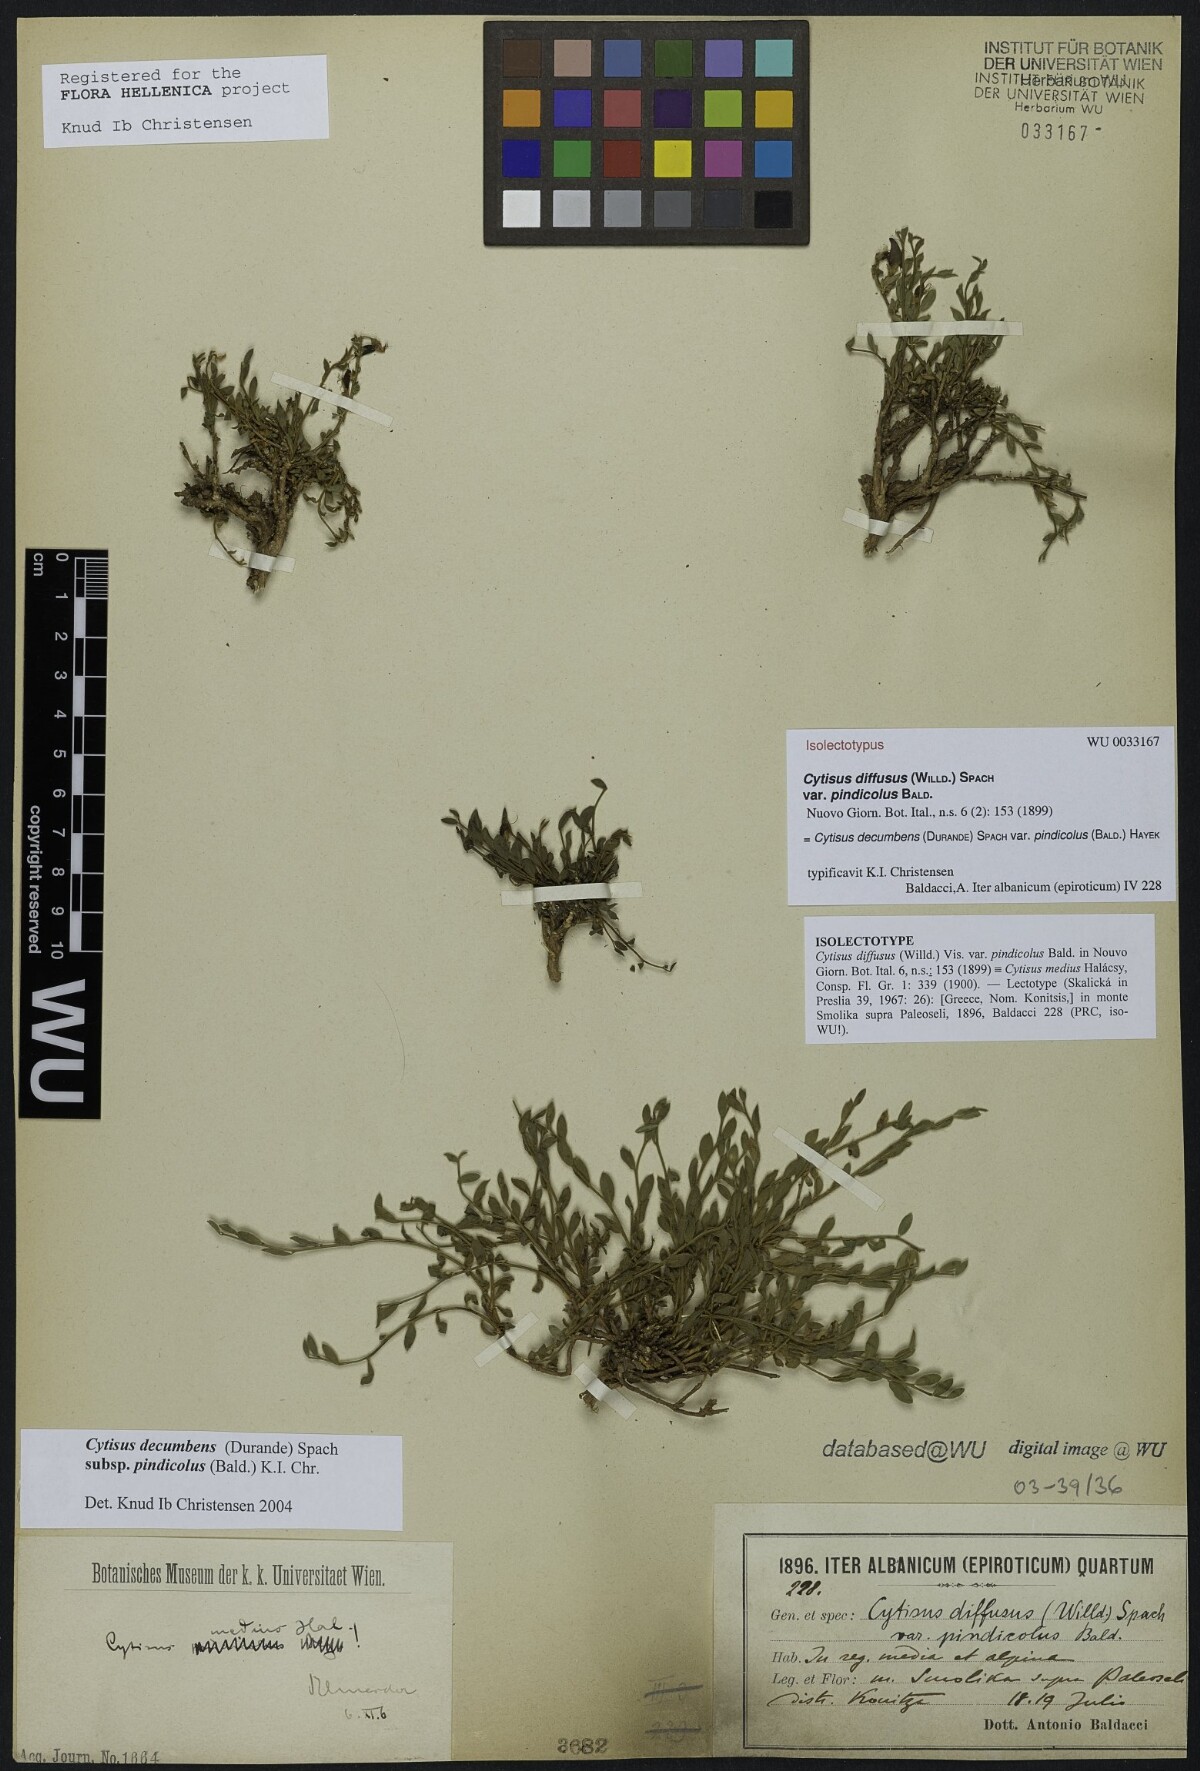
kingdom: Plantae
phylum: Tracheophyta
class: Magnoliopsida
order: Fabales
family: Fabaceae
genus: Cytisus
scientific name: Cytisus decumbens
